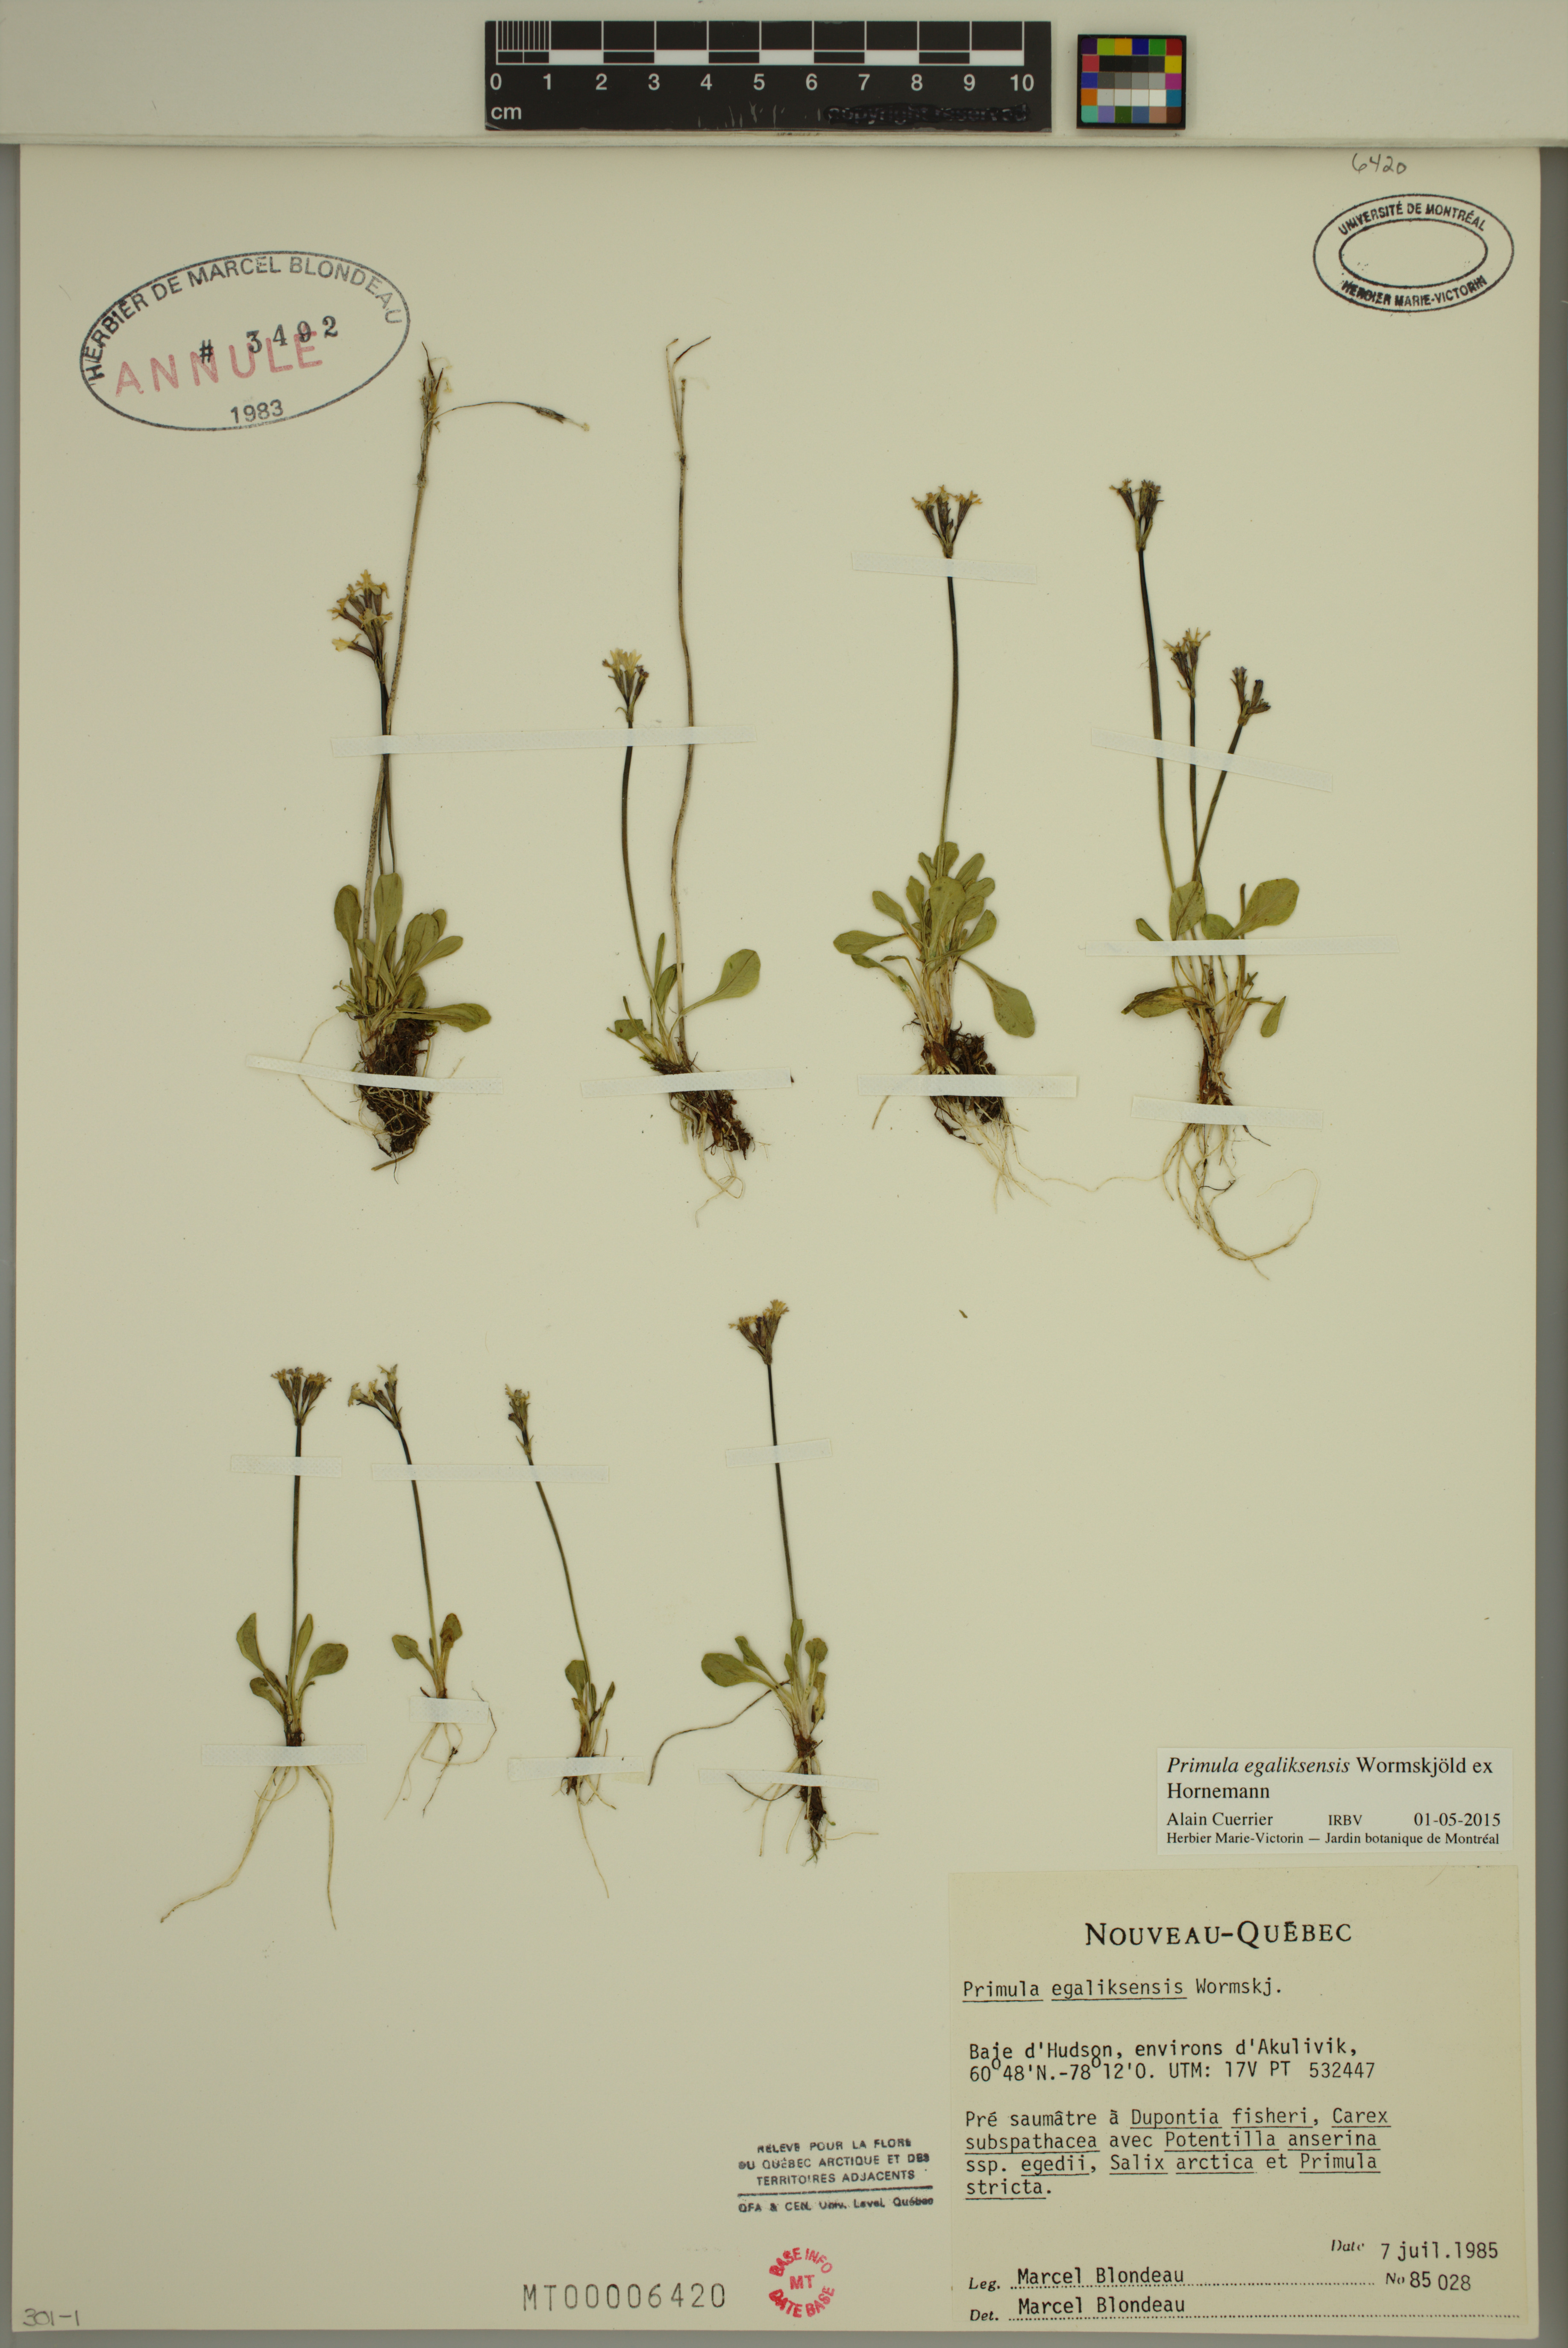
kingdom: Plantae
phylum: Tracheophyta
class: Magnoliopsida
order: Ericales
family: Primulaceae
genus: Primula
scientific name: Primula egaliksensis
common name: Greenland primrose
